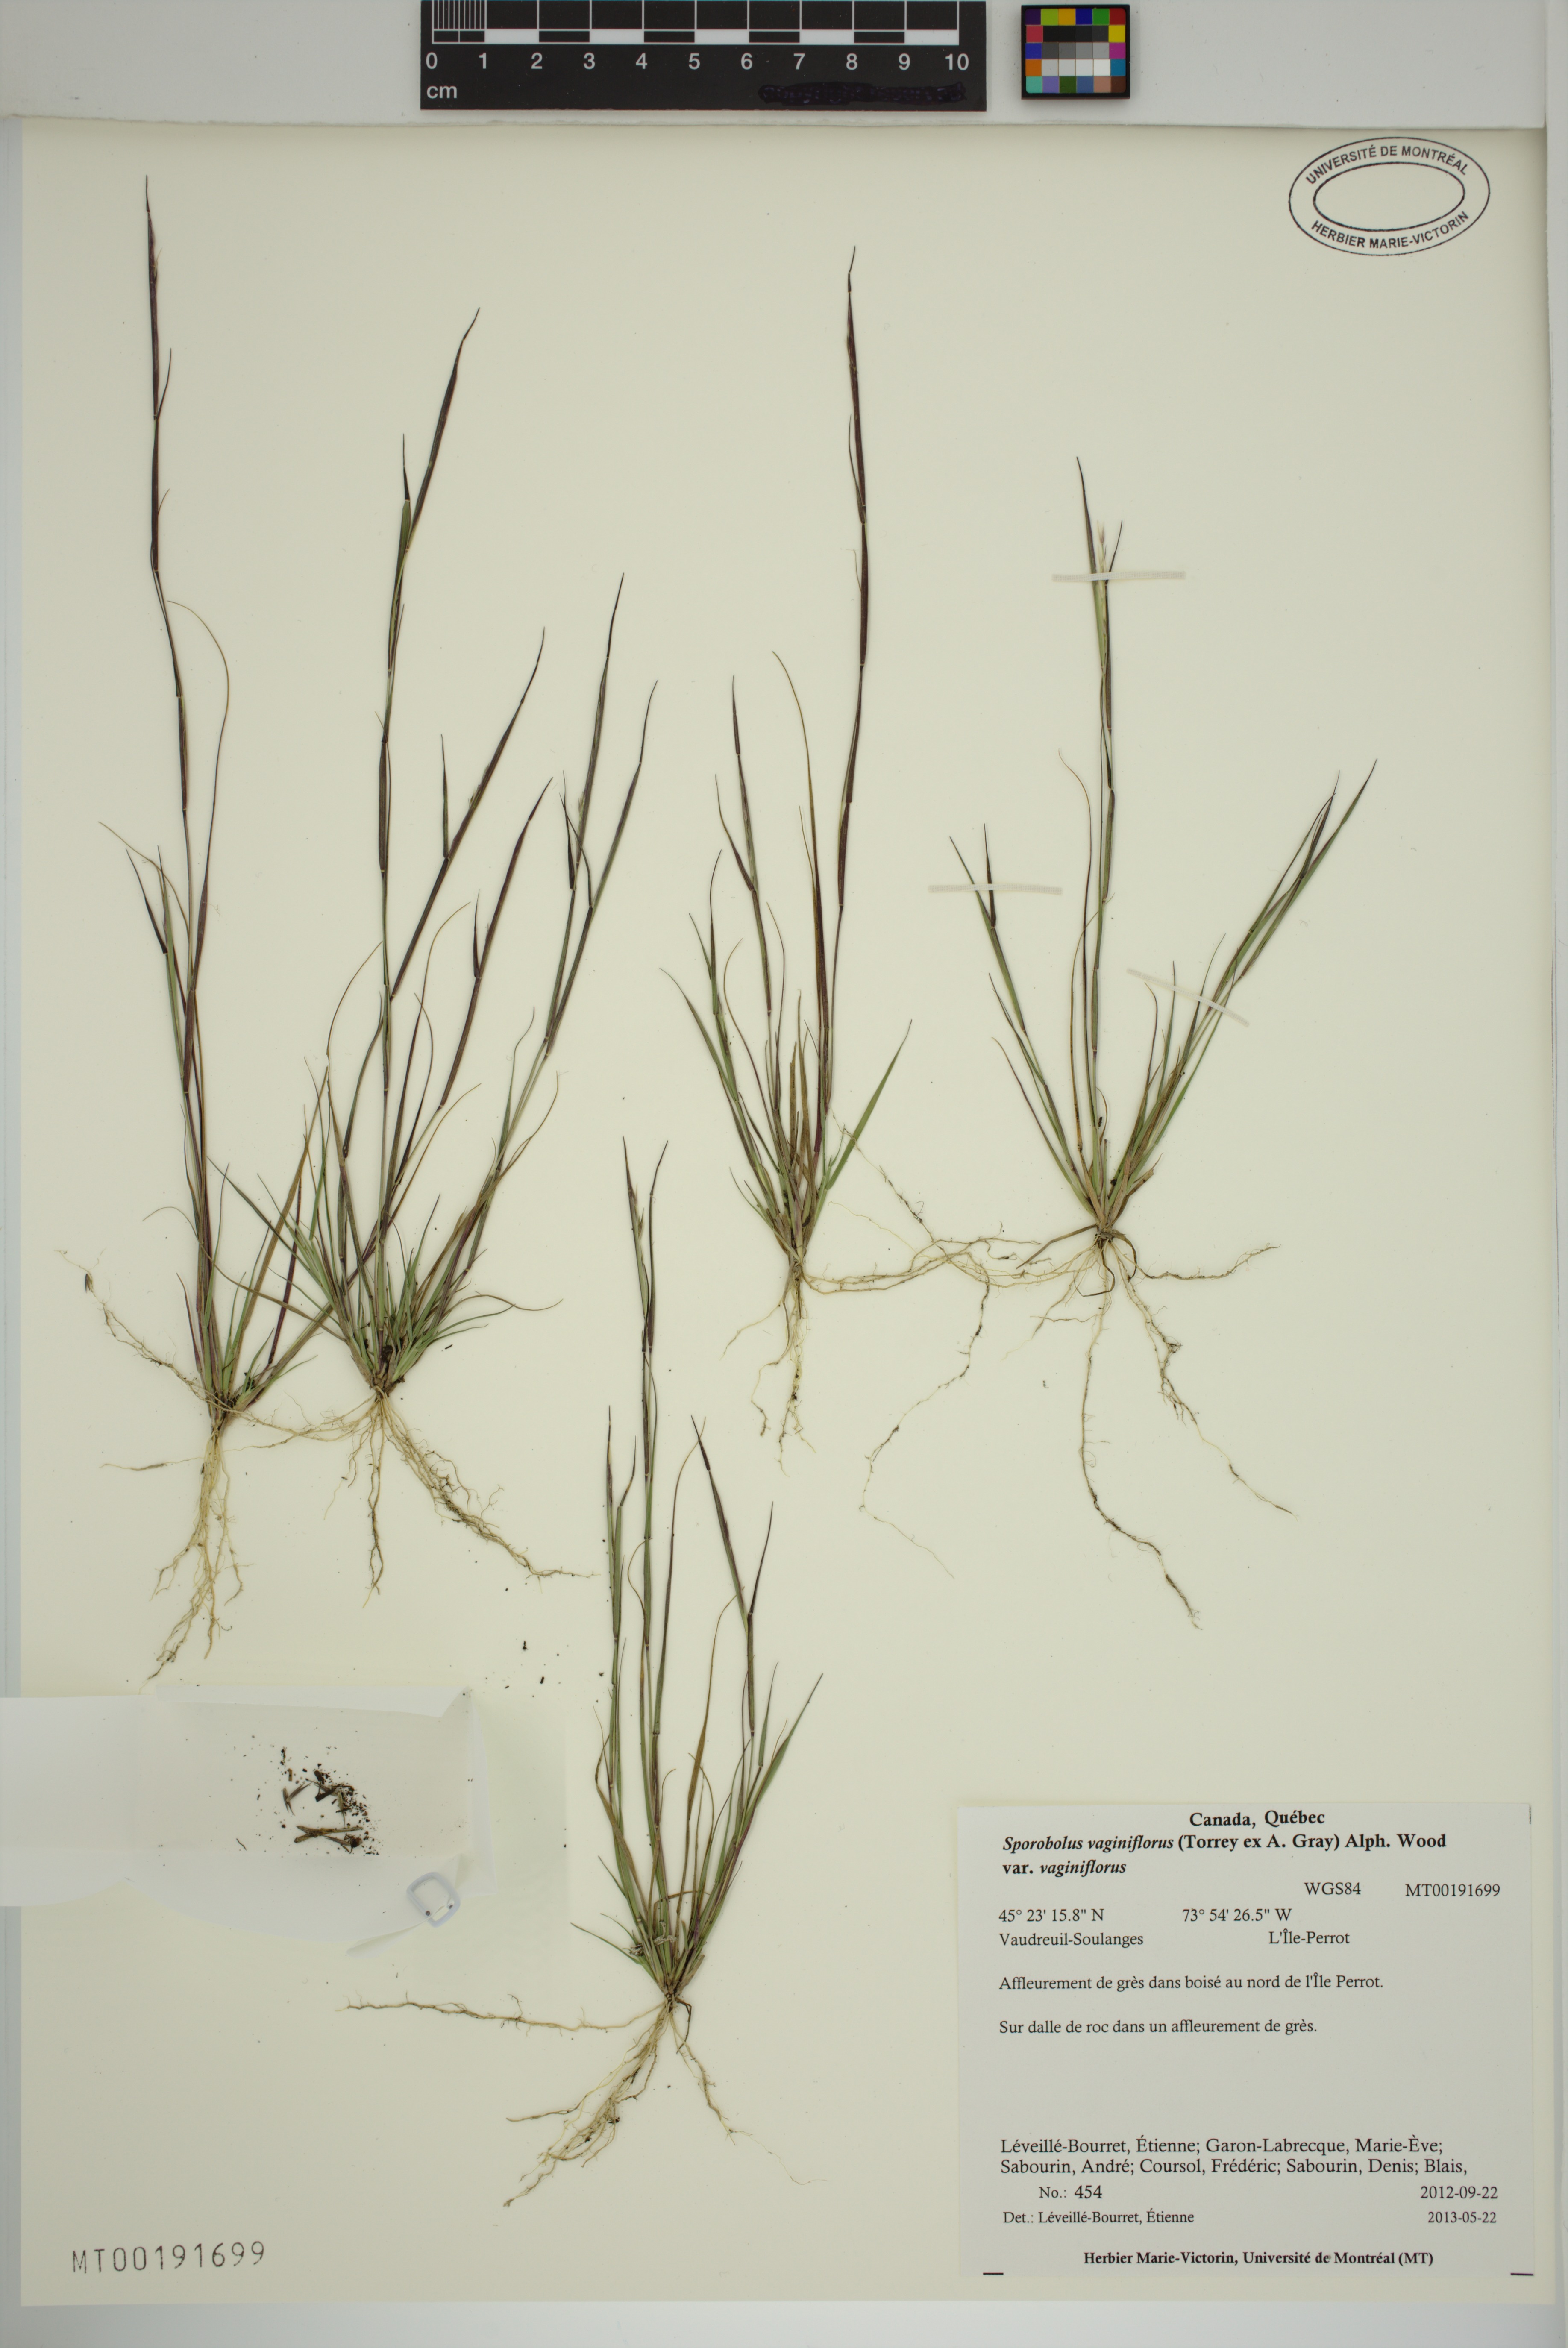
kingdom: Plantae
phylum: Tracheophyta
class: Liliopsida
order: Poales
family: Poaceae
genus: Sporobolus
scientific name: Sporobolus vaginiflorus
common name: Poverty dropseed
